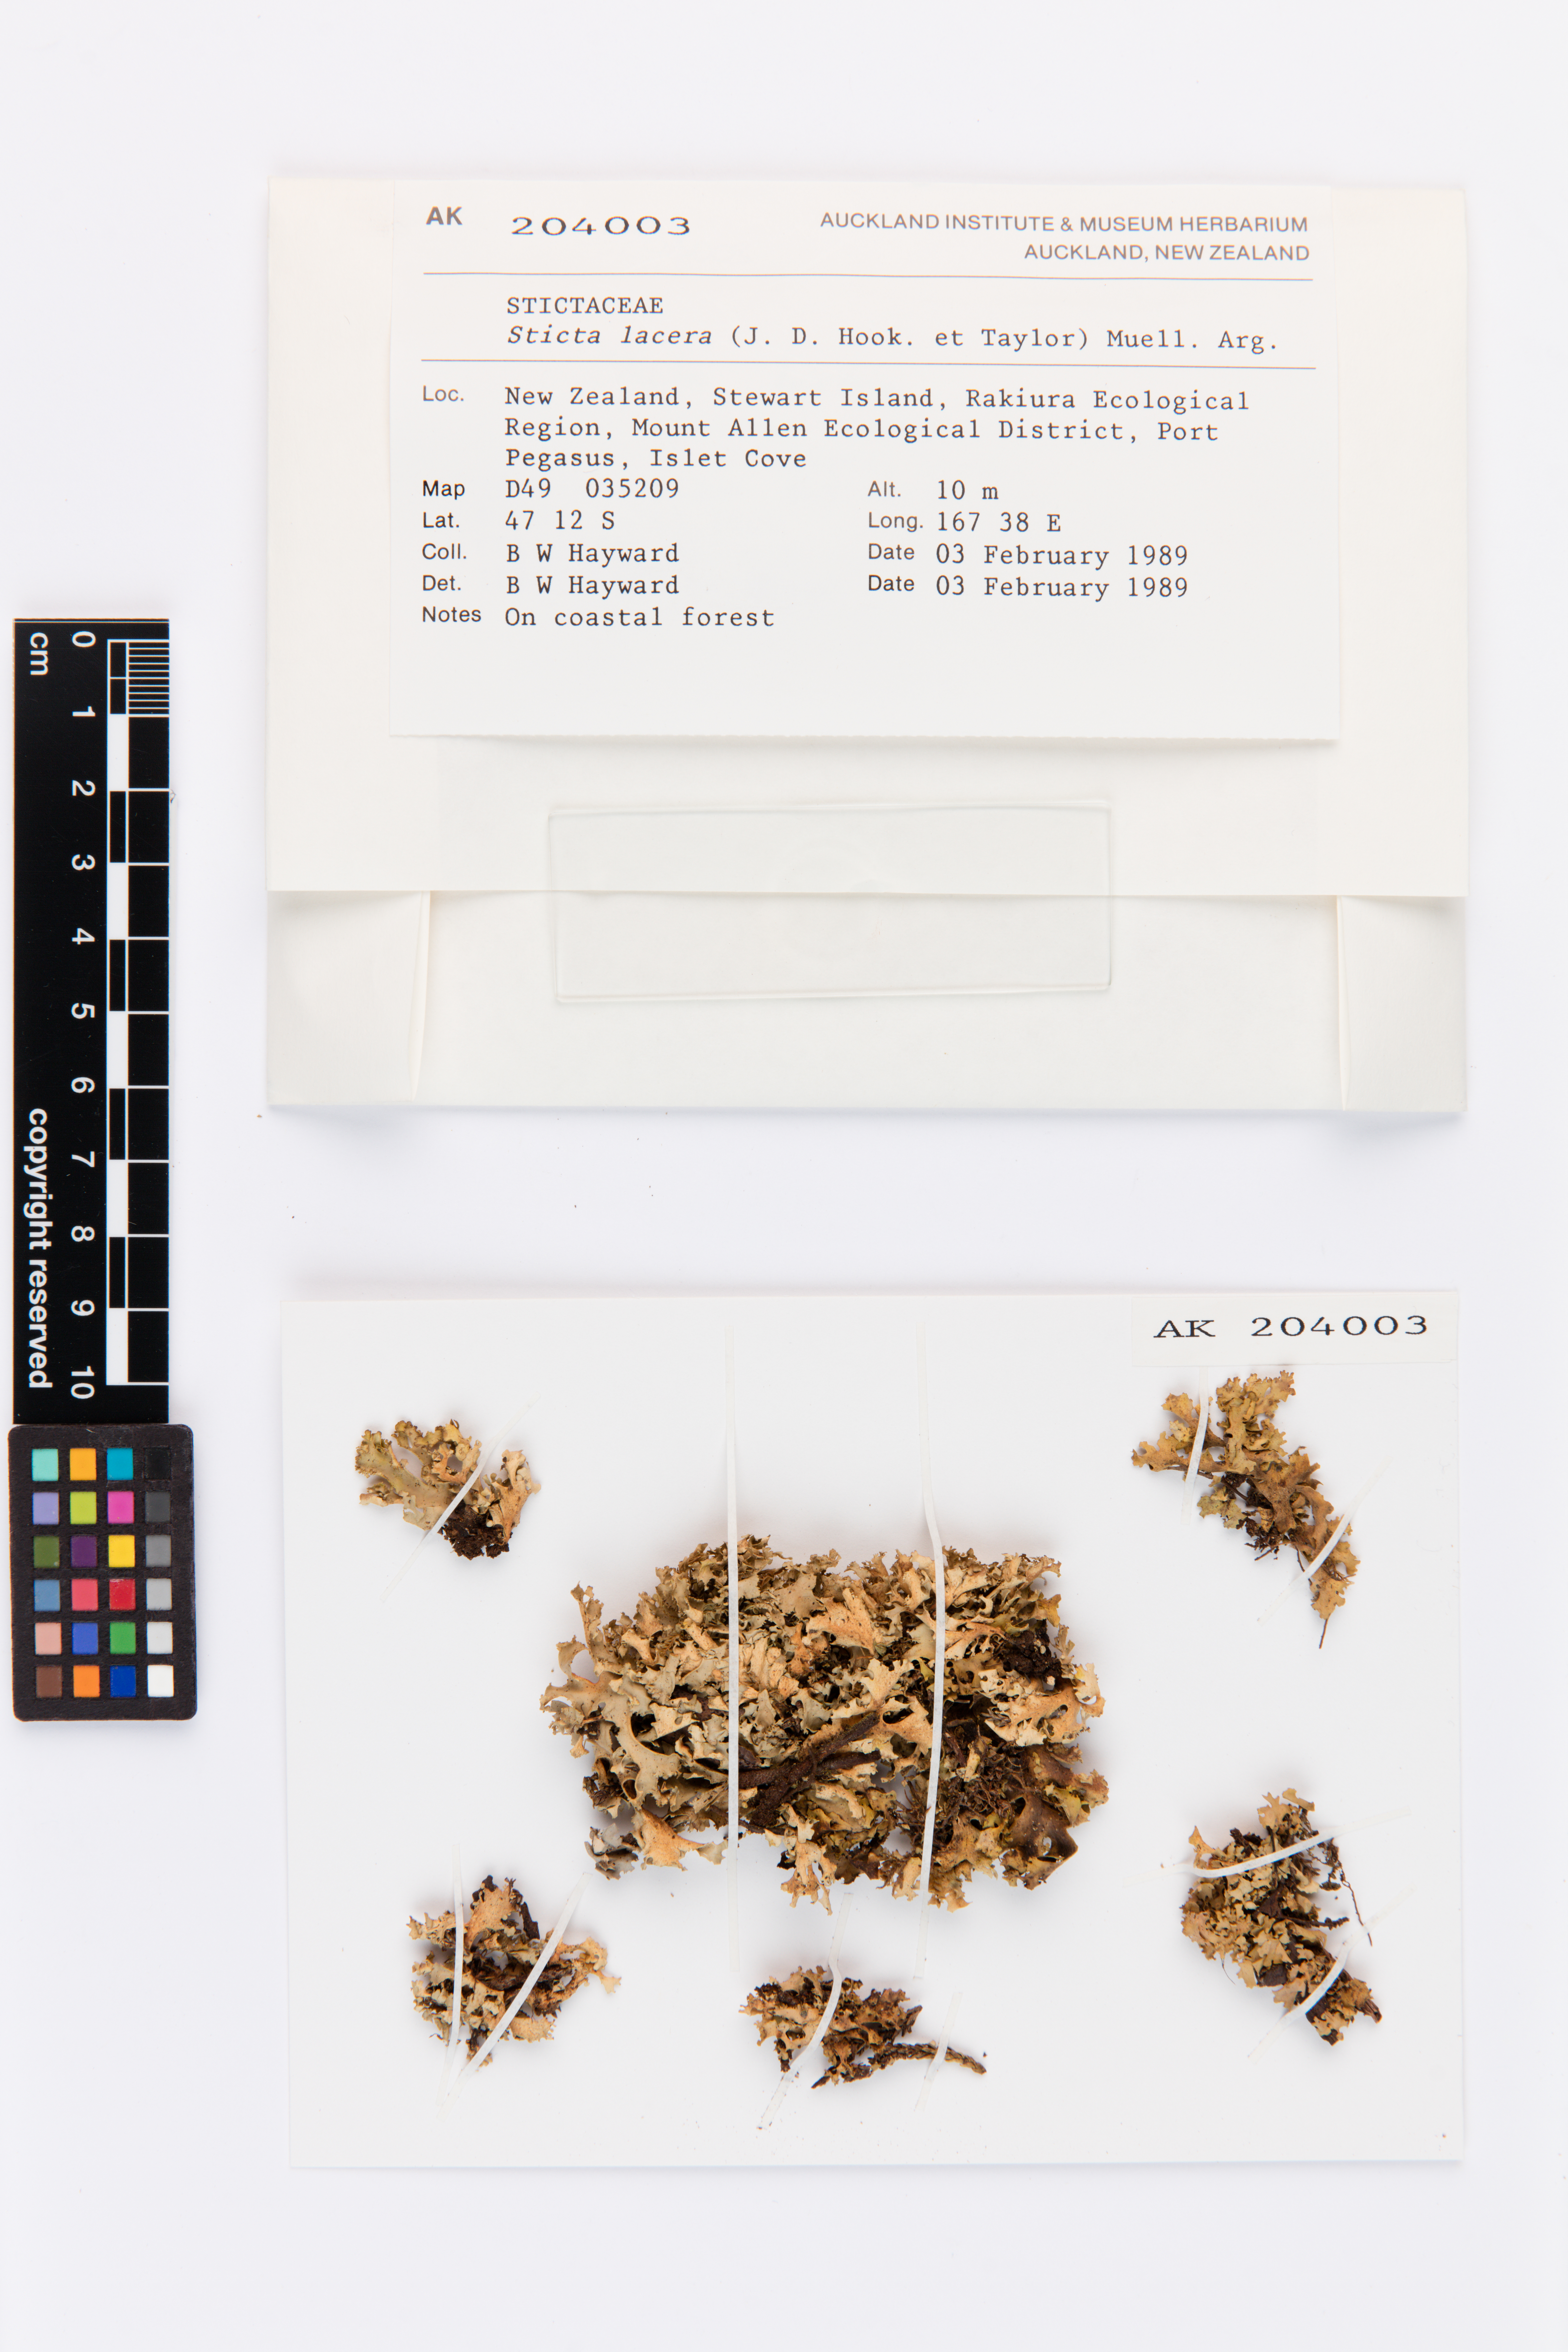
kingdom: Fungi
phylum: Ascomycota
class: Lecanoromycetes
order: Peltigerales
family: Lobariaceae
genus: Sticta
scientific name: Sticta
